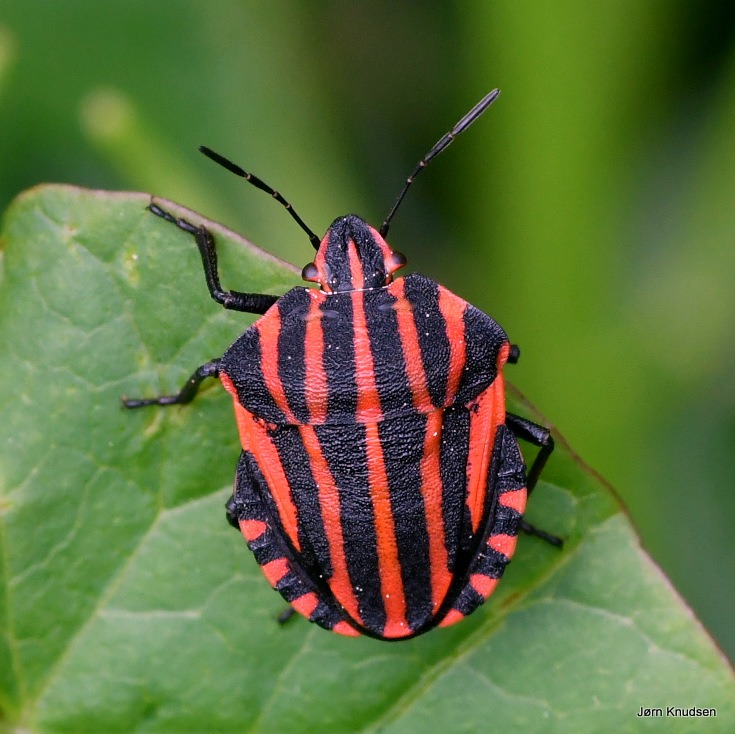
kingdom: Animalia
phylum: Arthropoda
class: Insecta
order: Hemiptera
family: Pentatomidae
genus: Graphosoma
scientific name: Graphosoma italicum
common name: Stribetæge
